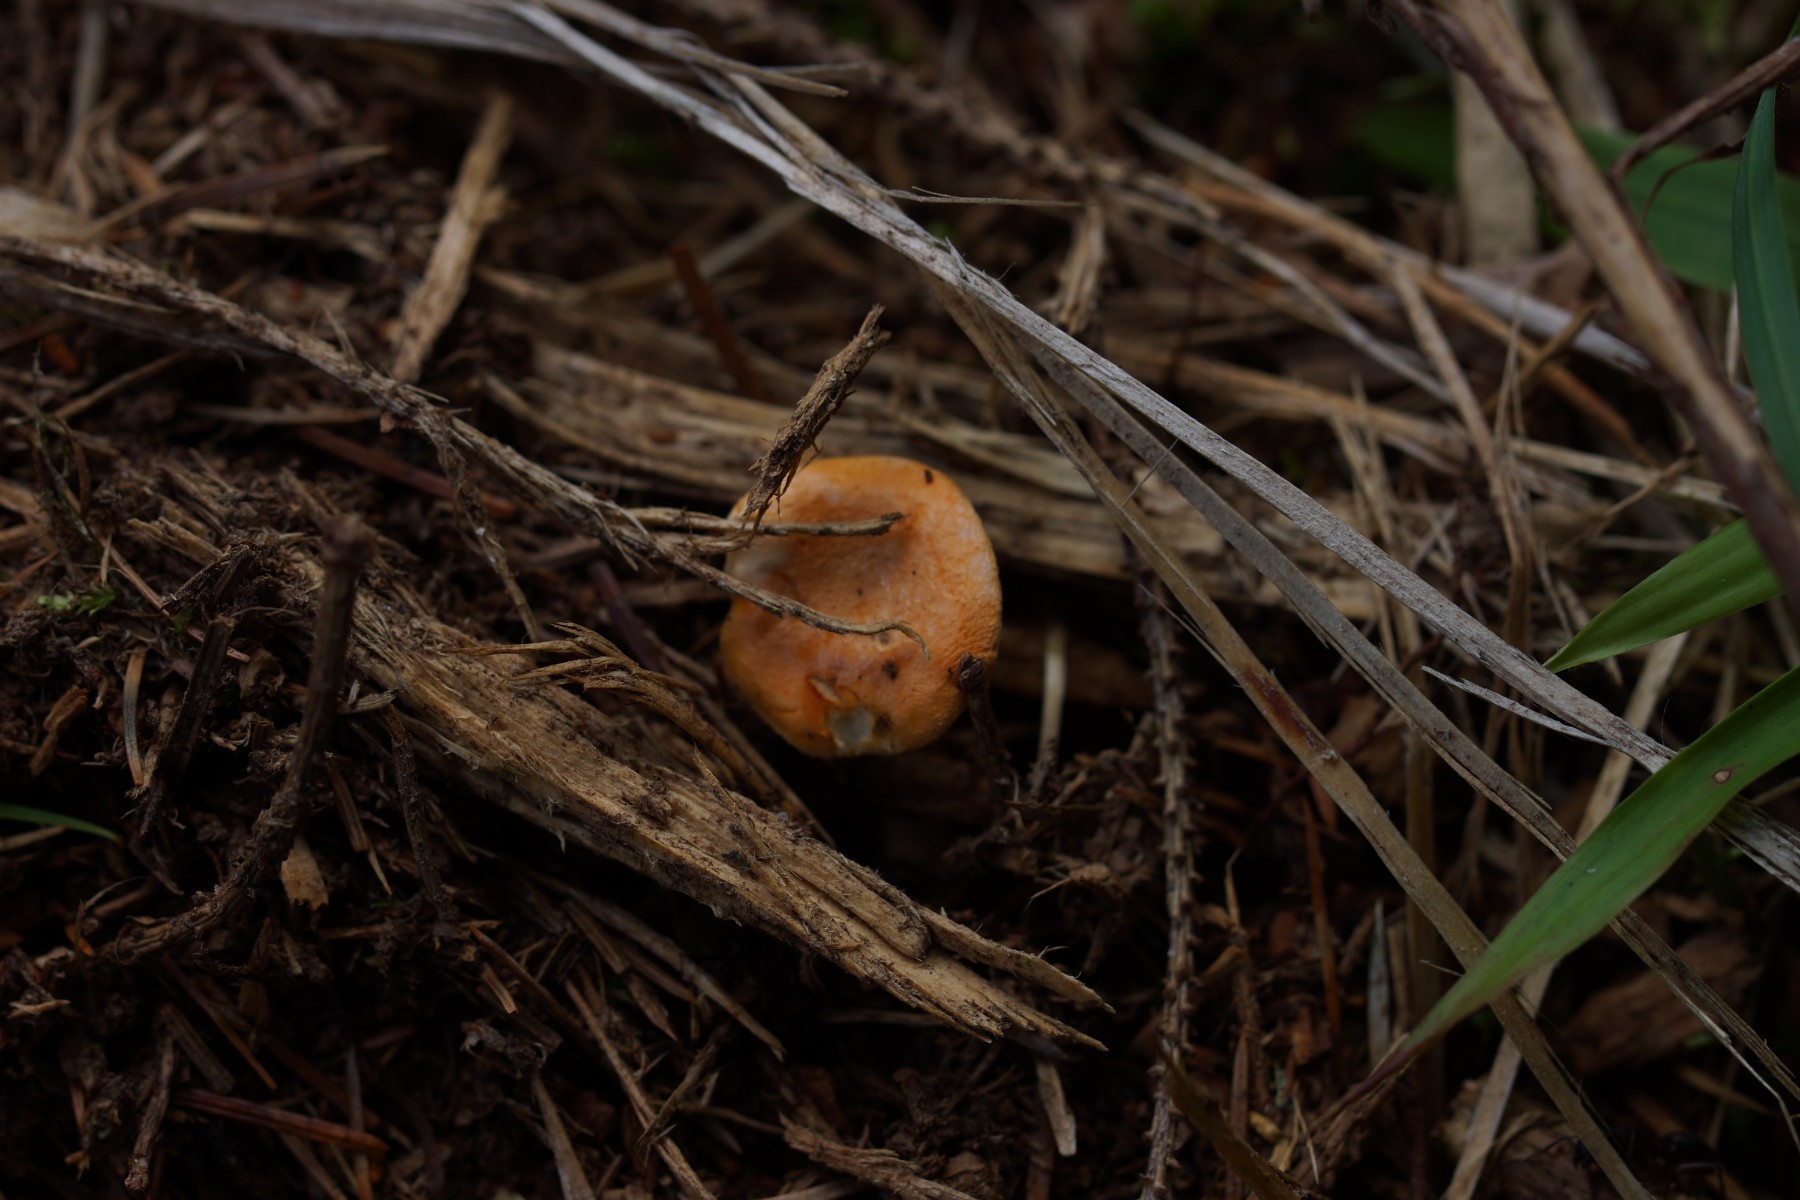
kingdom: Fungi
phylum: Basidiomycota
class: Agaricomycetes
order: Boletales
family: Hygrophoropsidaceae
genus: Hygrophoropsis
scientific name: Hygrophoropsis aurantiaca
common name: almindelig orangekantarel
